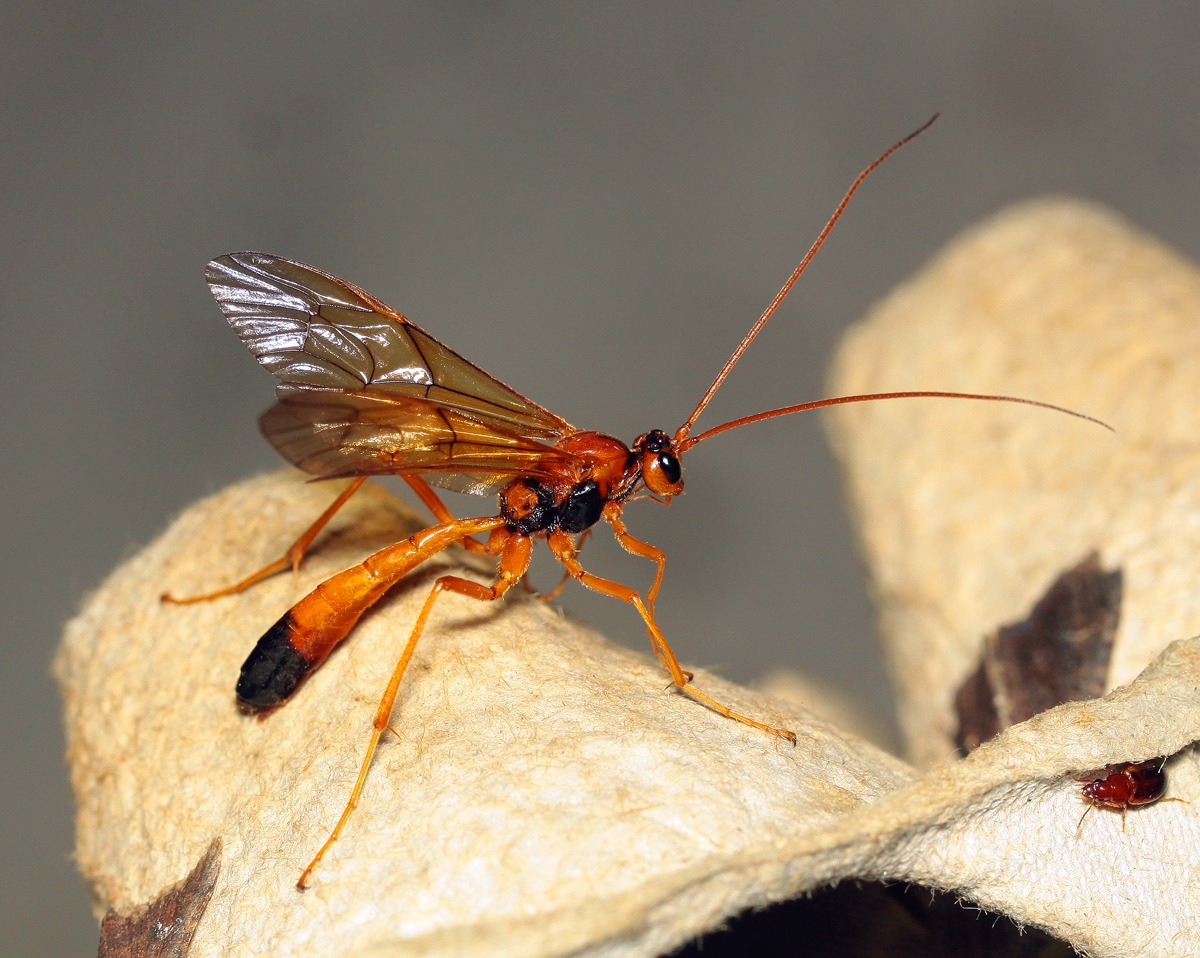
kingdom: Animalia
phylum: Arthropoda
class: Insecta
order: Hymenoptera
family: Ichneumonidae
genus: Opheltes
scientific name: Opheltes glaucopterus
